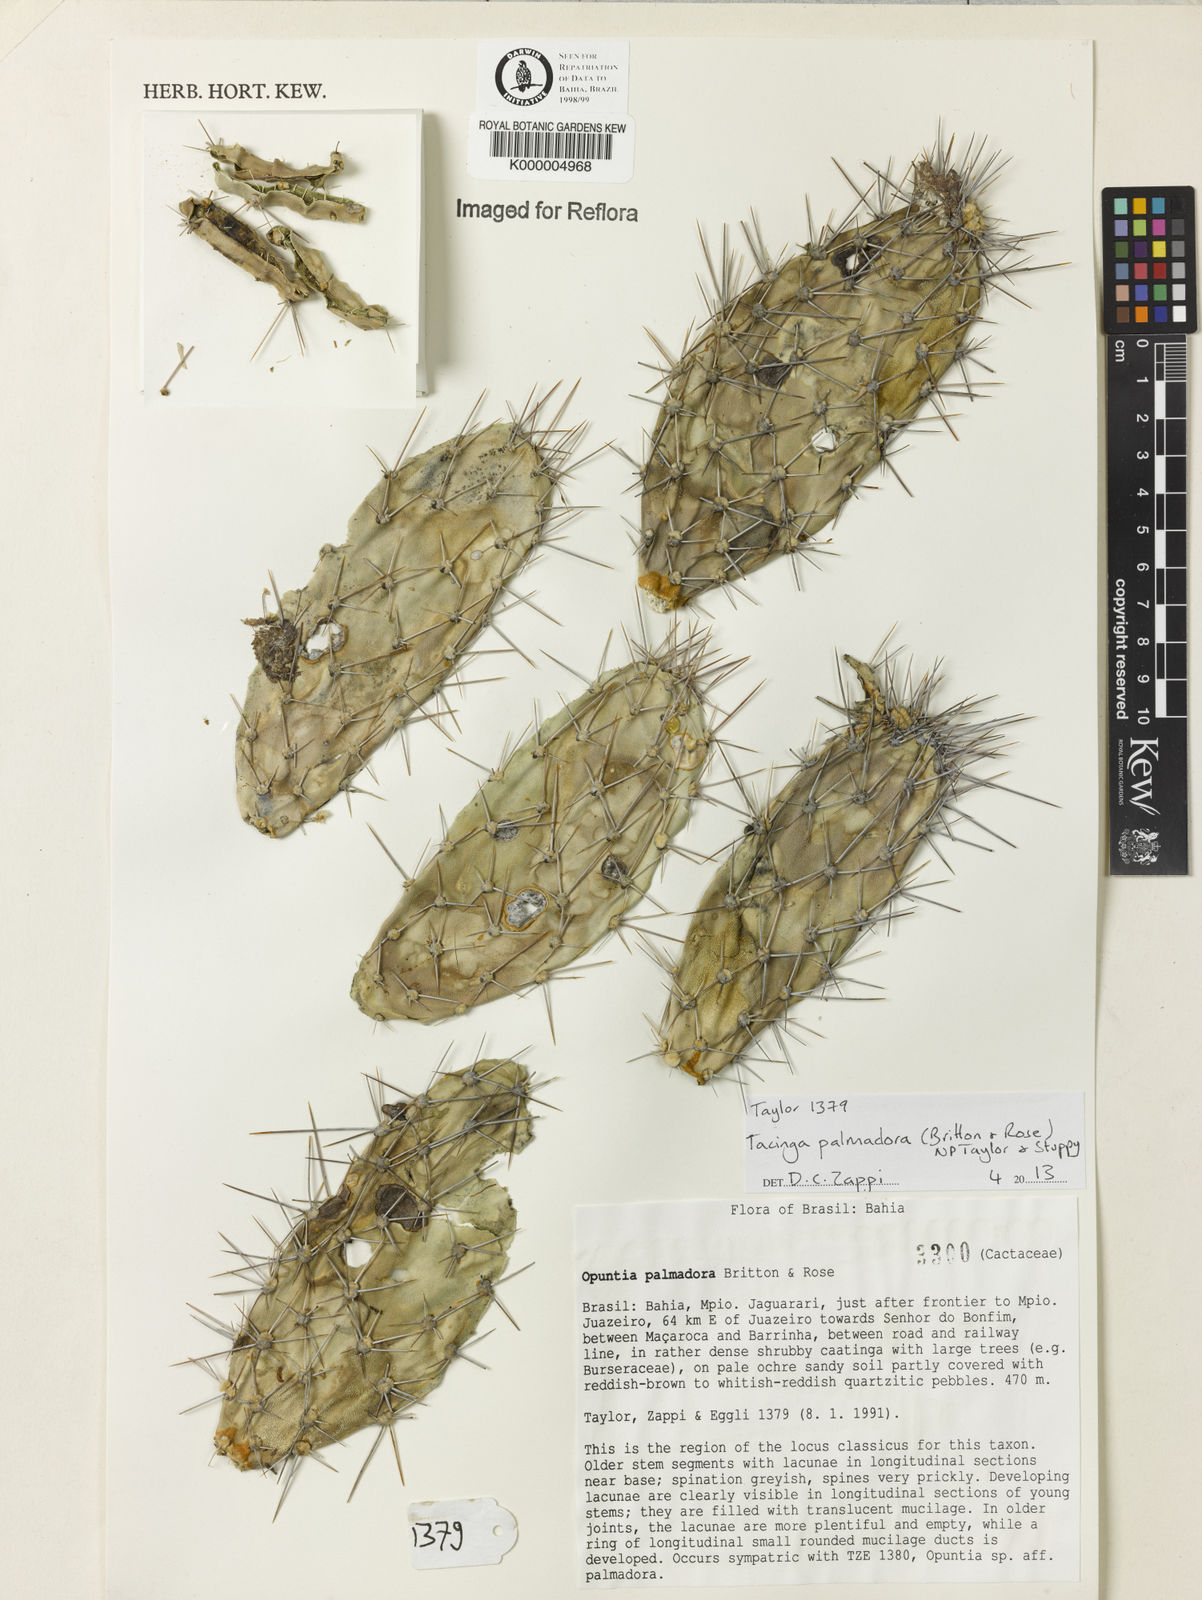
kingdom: Plantae
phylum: Tracheophyta
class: Magnoliopsida
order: Caryophyllales
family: Cactaceae
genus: Tacinga
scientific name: Tacinga palmadora
